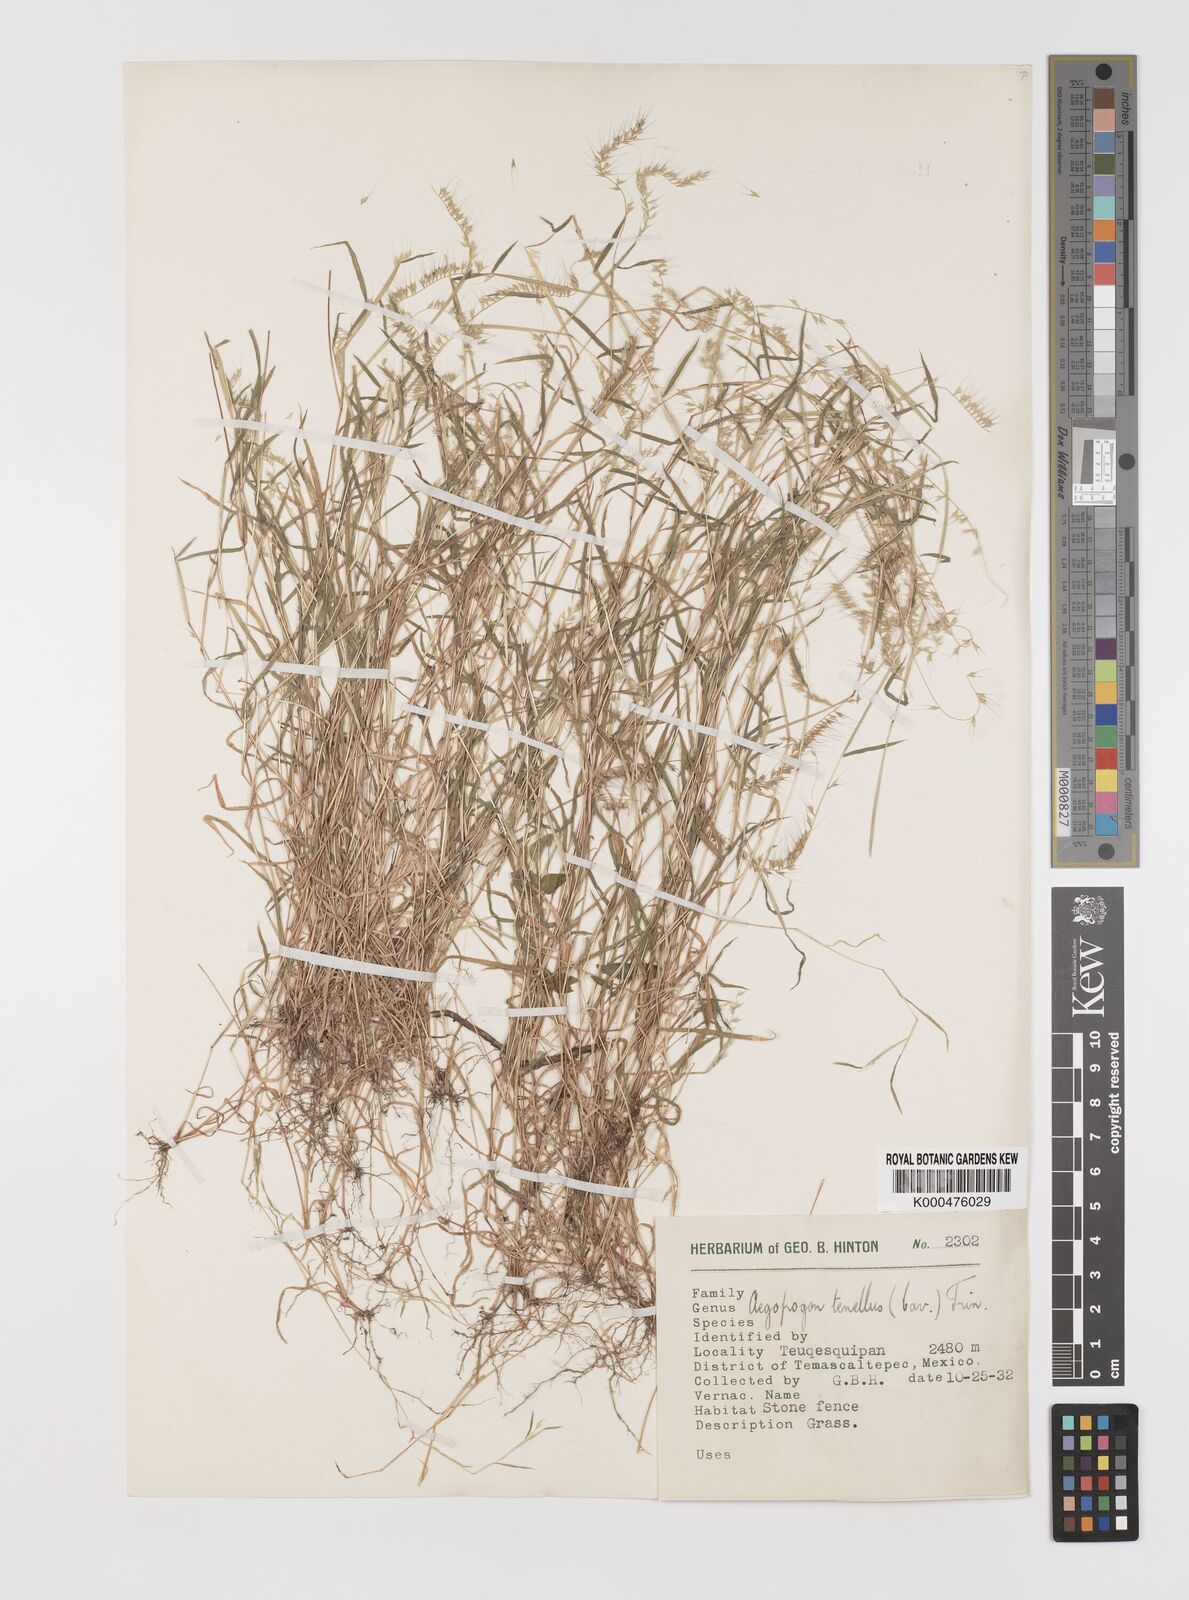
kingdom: Plantae
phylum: Tracheophyta
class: Liliopsida
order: Poales
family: Poaceae
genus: Muhlenbergia
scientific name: Muhlenbergia uniseta
